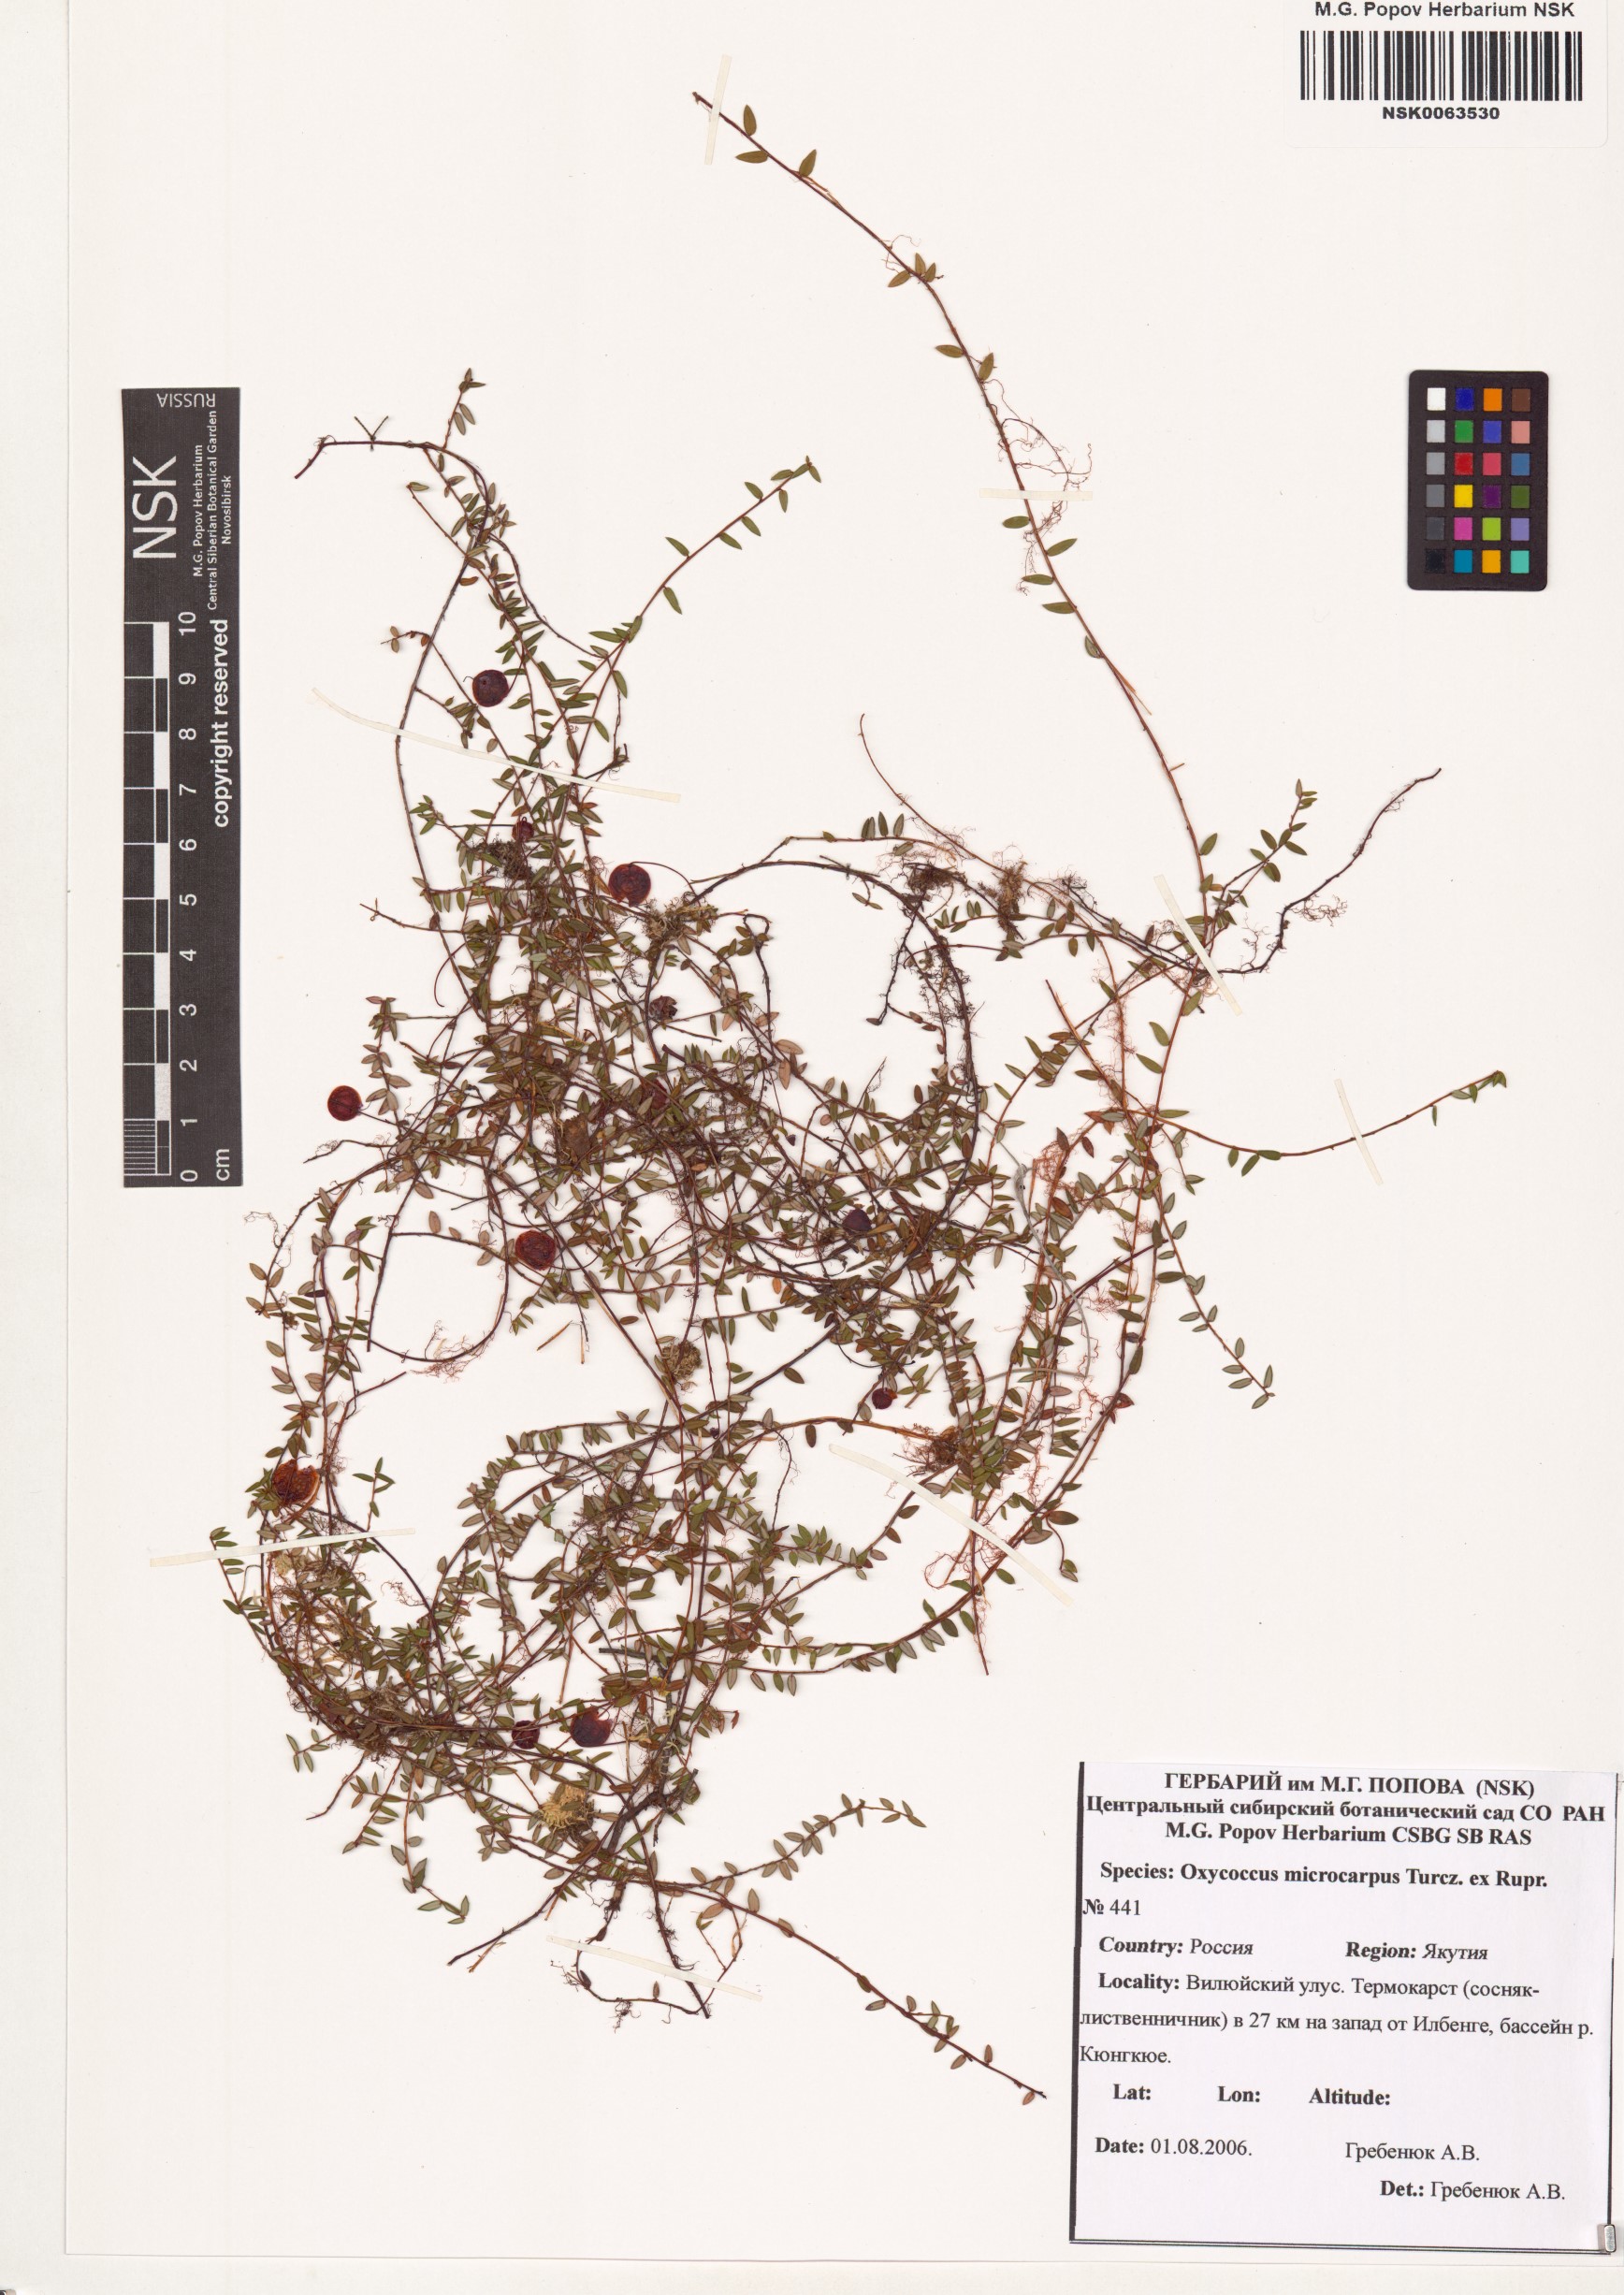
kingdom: Plantae
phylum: Tracheophyta
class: Magnoliopsida
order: Ericales
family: Ericaceae
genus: Vaccinium
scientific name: Vaccinium microcarpum
